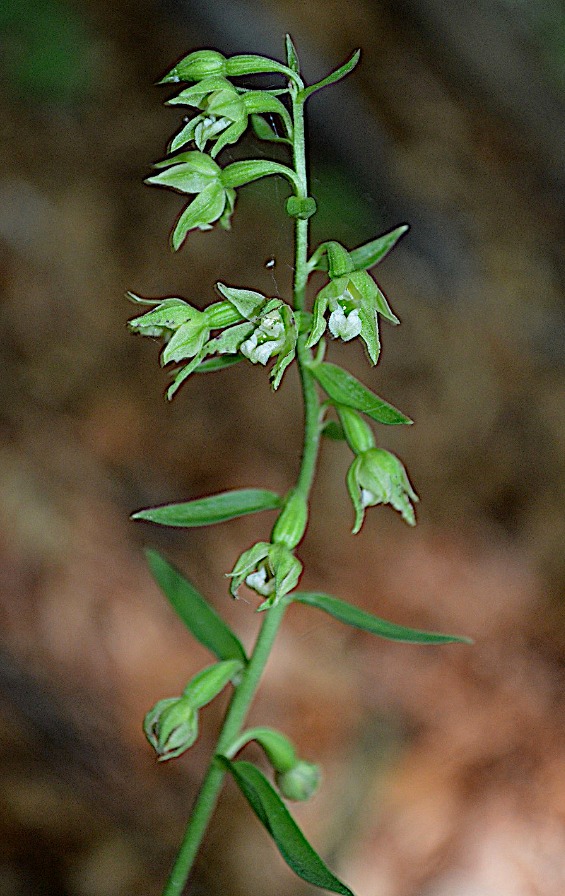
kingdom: Plantae
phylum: Tracheophyta
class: Liliopsida
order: Asparagales
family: Orchidaceae
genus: Epipactis
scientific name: Epipactis phyllanthes
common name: Nikkende hullæbe
